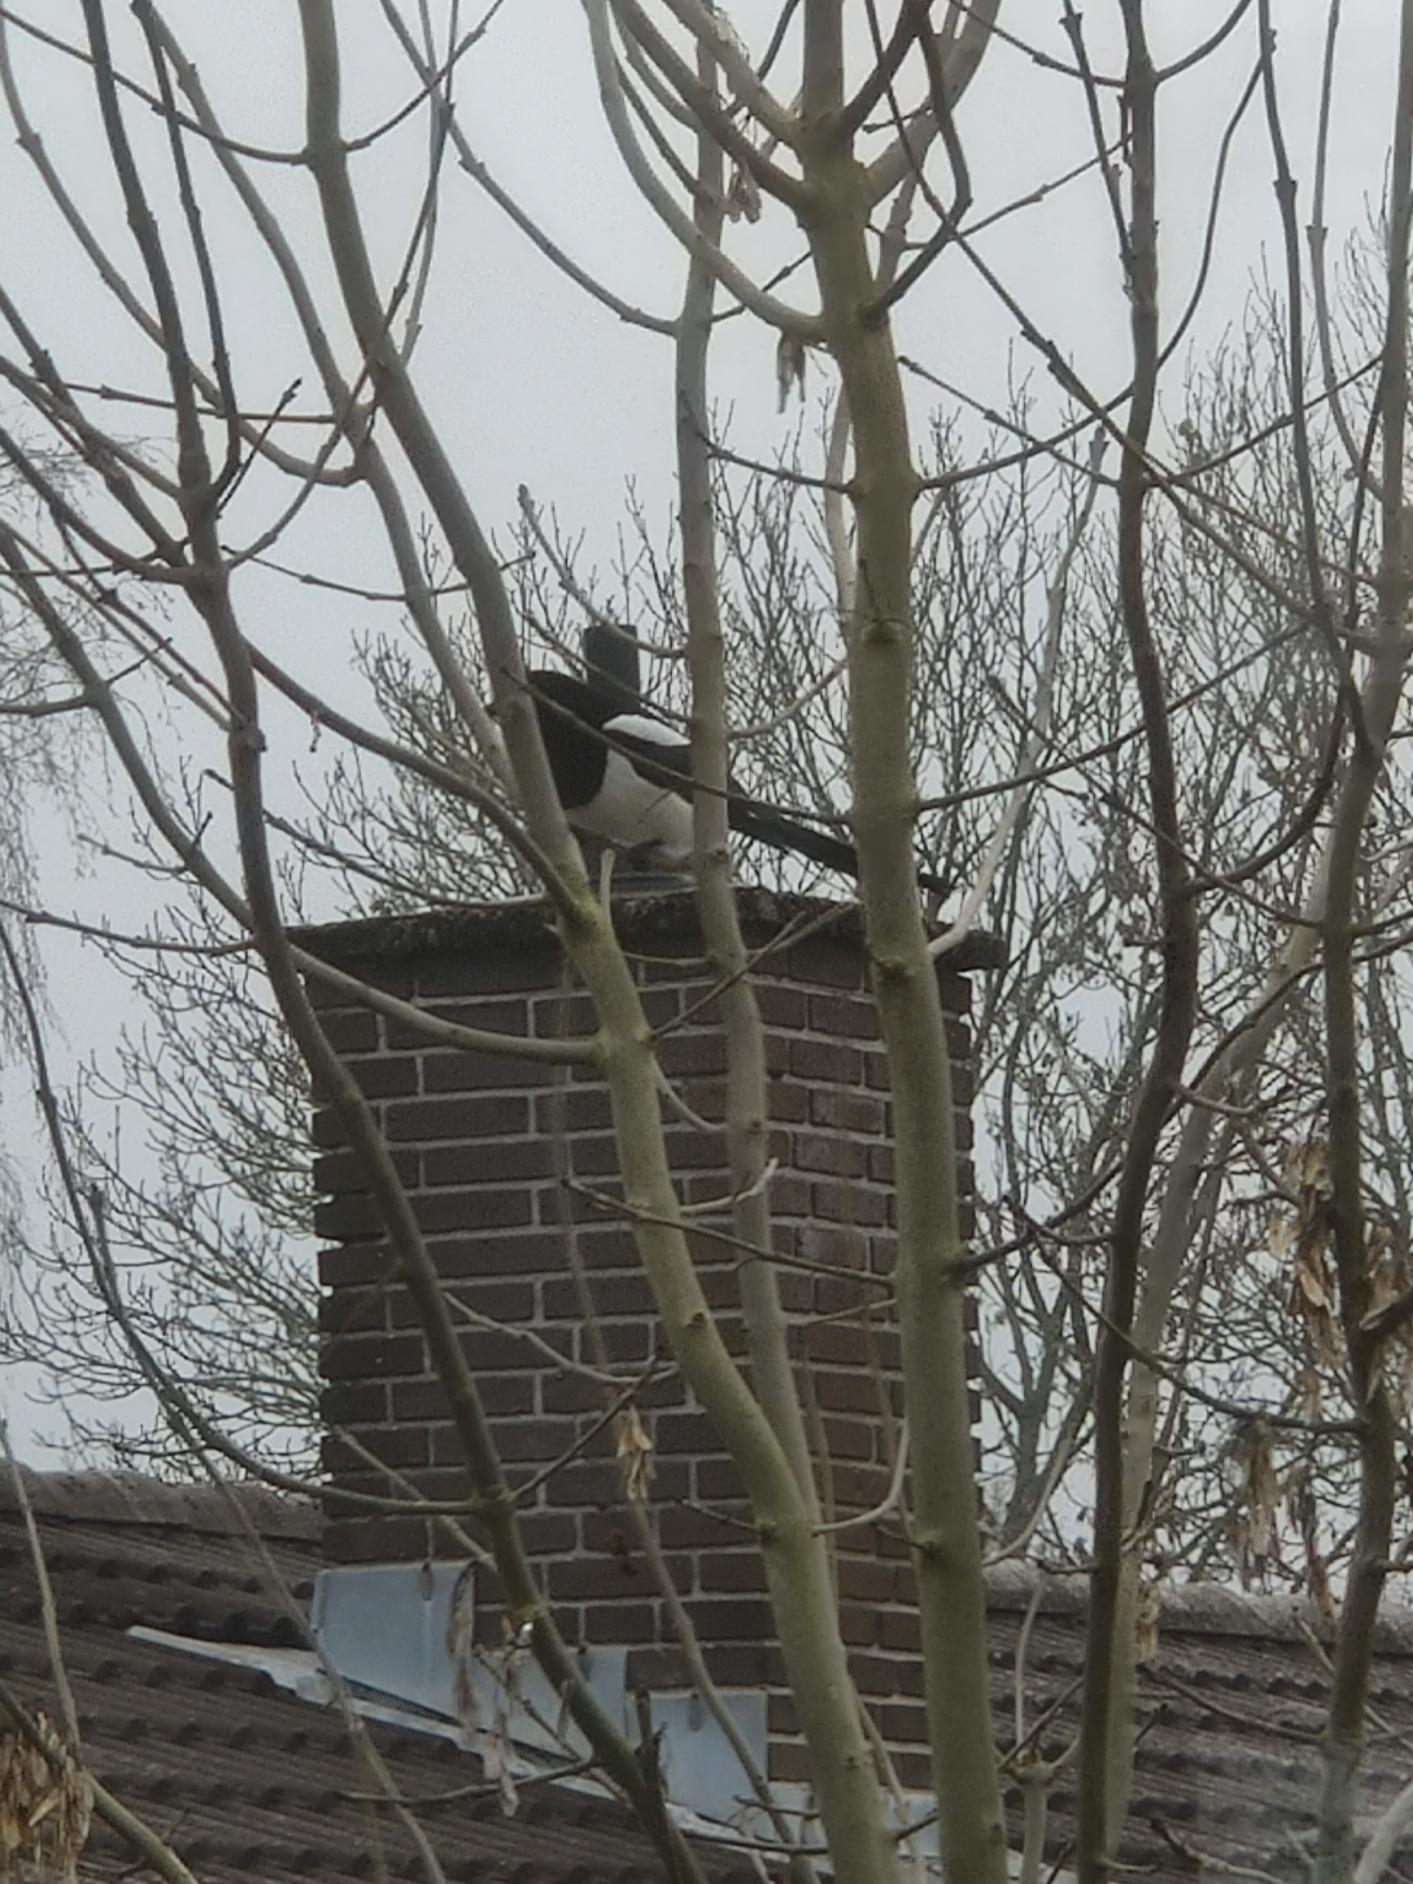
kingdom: Animalia
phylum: Chordata
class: Aves
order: Passeriformes
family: Corvidae
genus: Pica
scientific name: Pica pica
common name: Husskade
